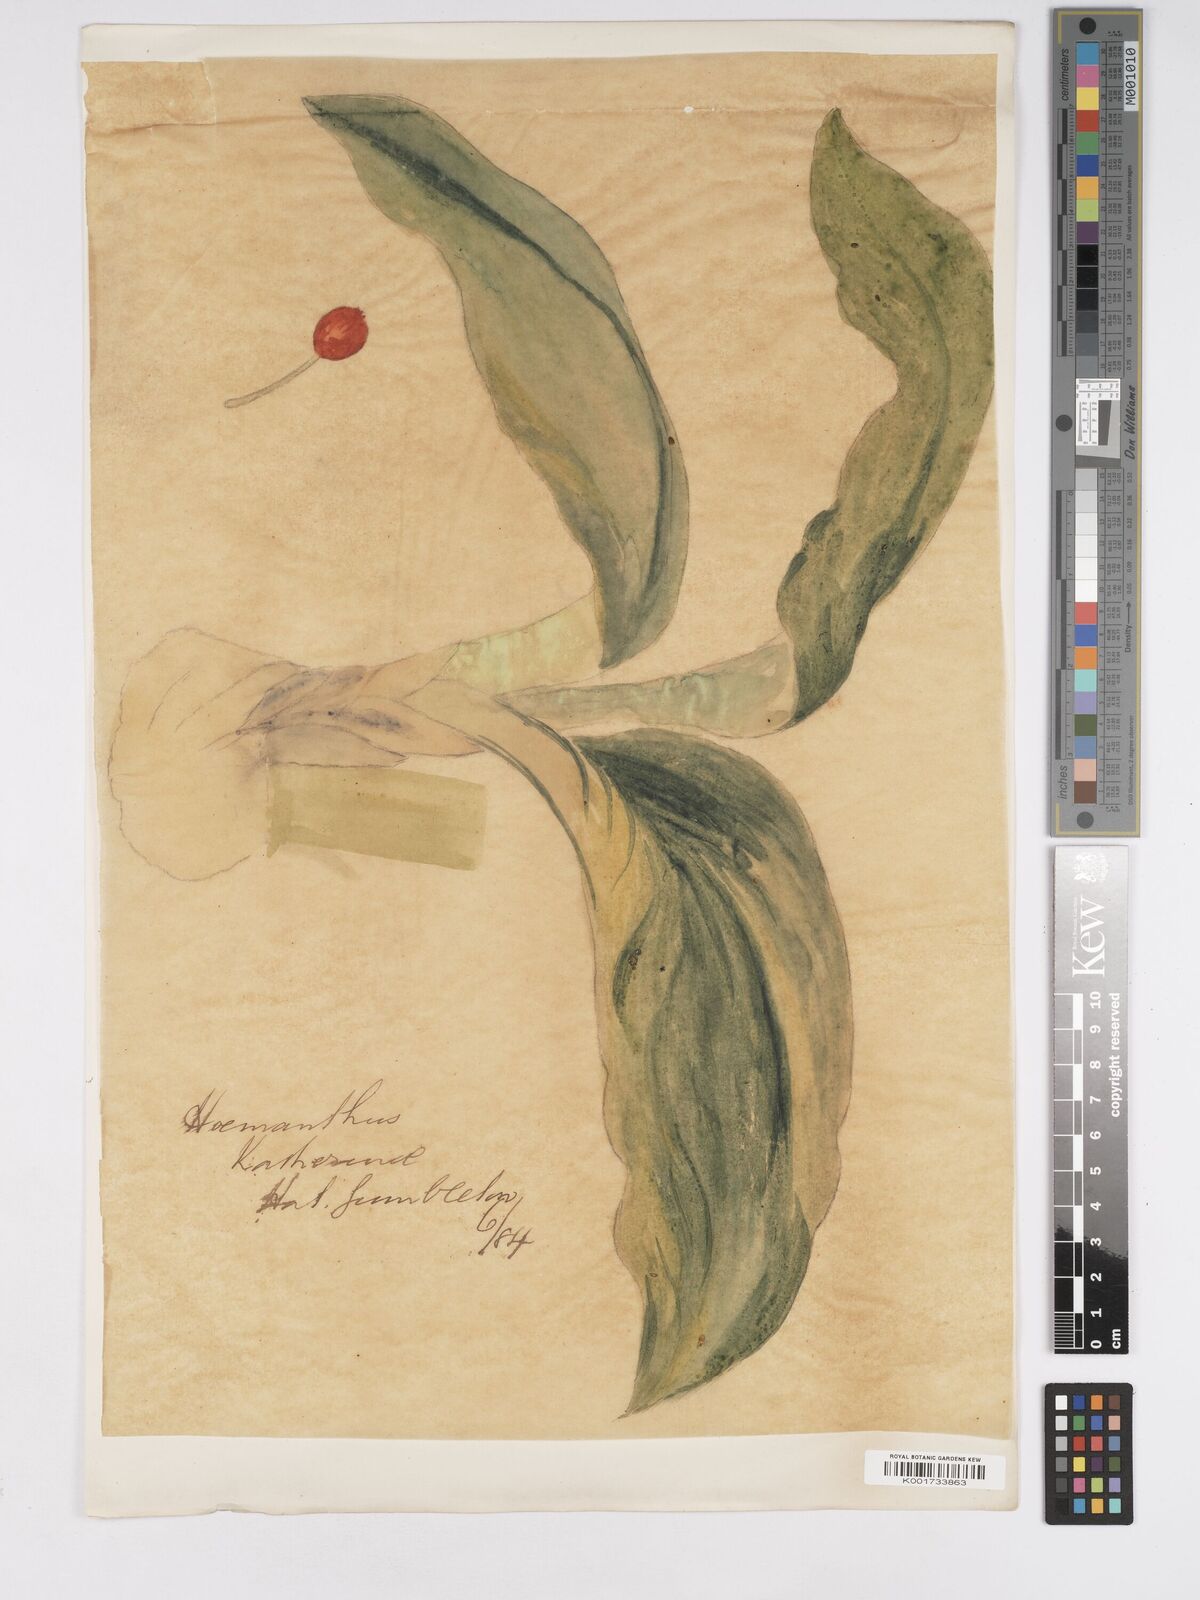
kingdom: Plantae
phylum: Tracheophyta
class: Liliopsida
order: Asparagales
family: Amaryllidaceae
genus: Scadoxus
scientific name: Scadoxus multiflorus
